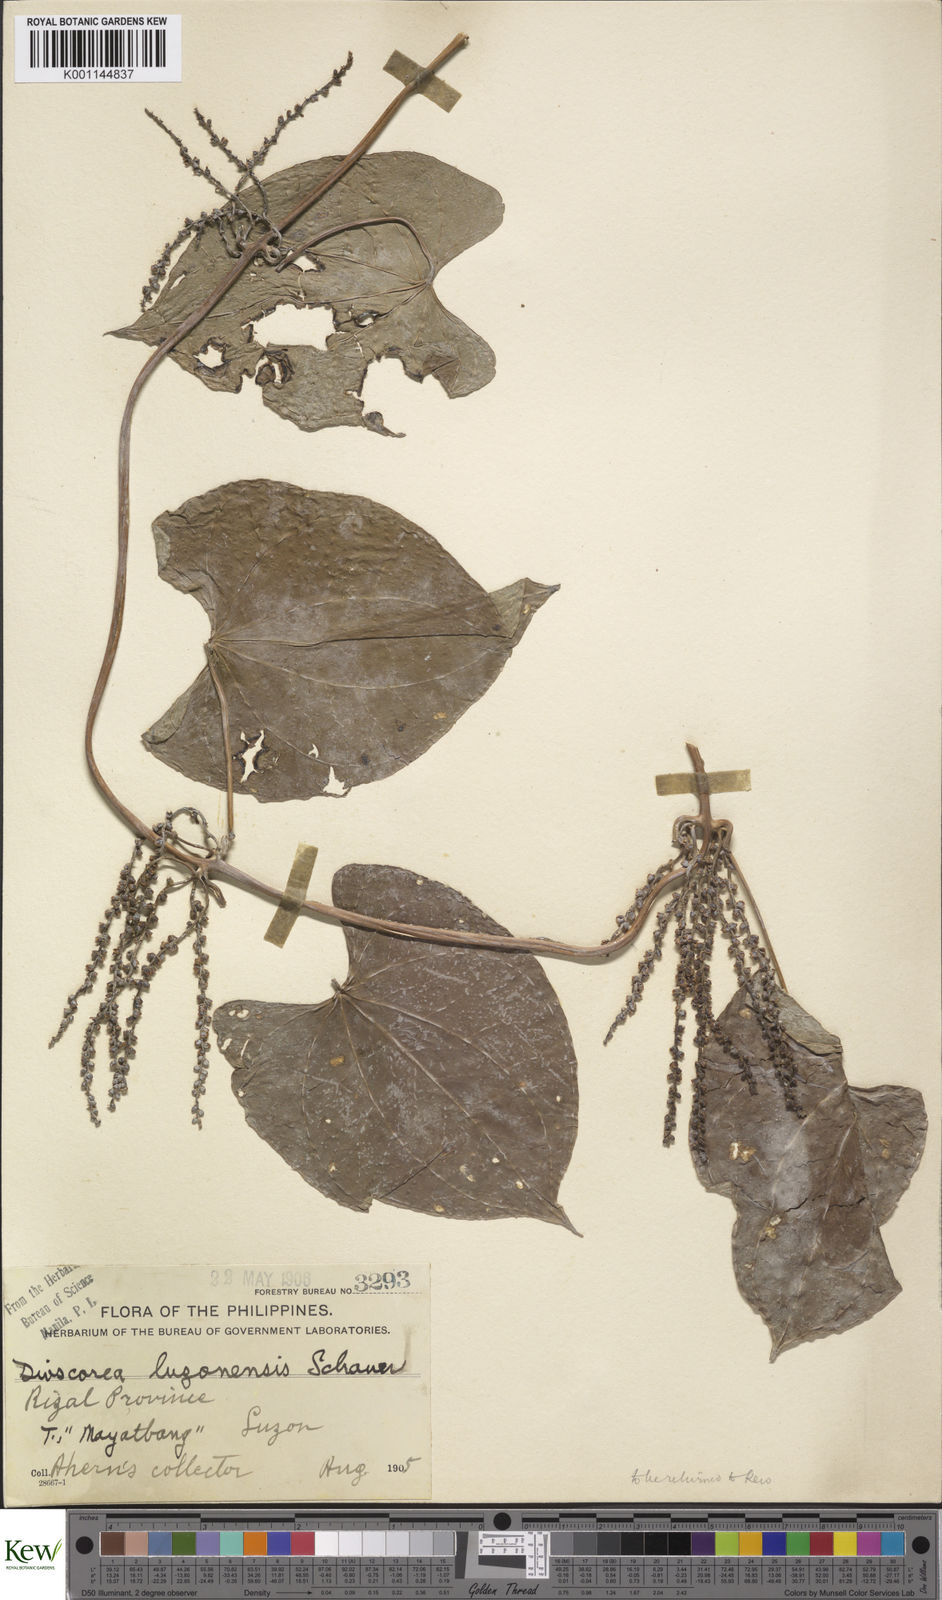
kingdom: Plantae
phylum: Tracheophyta
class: Liliopsida
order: Dioscoreales
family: Dioscoreaceae
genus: Dioscorea
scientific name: Dioscorea luzonensis
